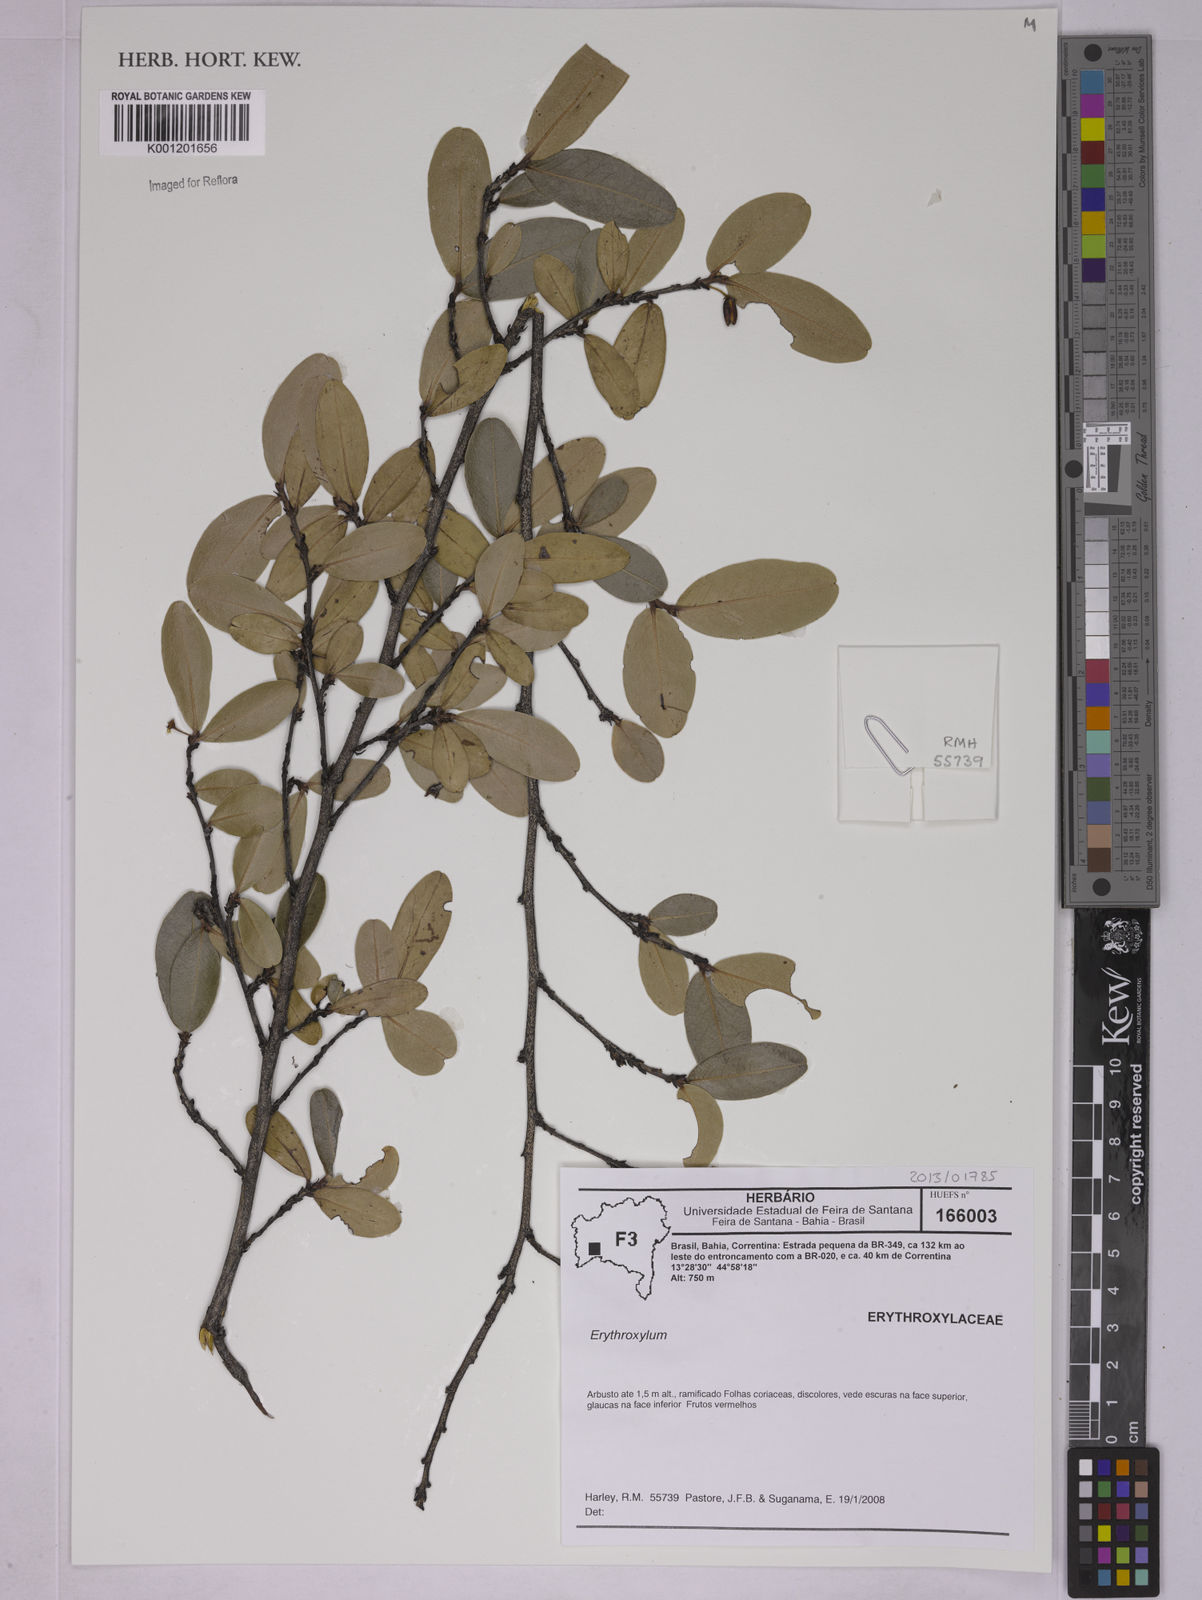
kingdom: Plantae
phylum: Tracheophyta
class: Magnoliopsida
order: Malpighiales
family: Erythroxylaceae
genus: Erythroxylum
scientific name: Erythroxylum
